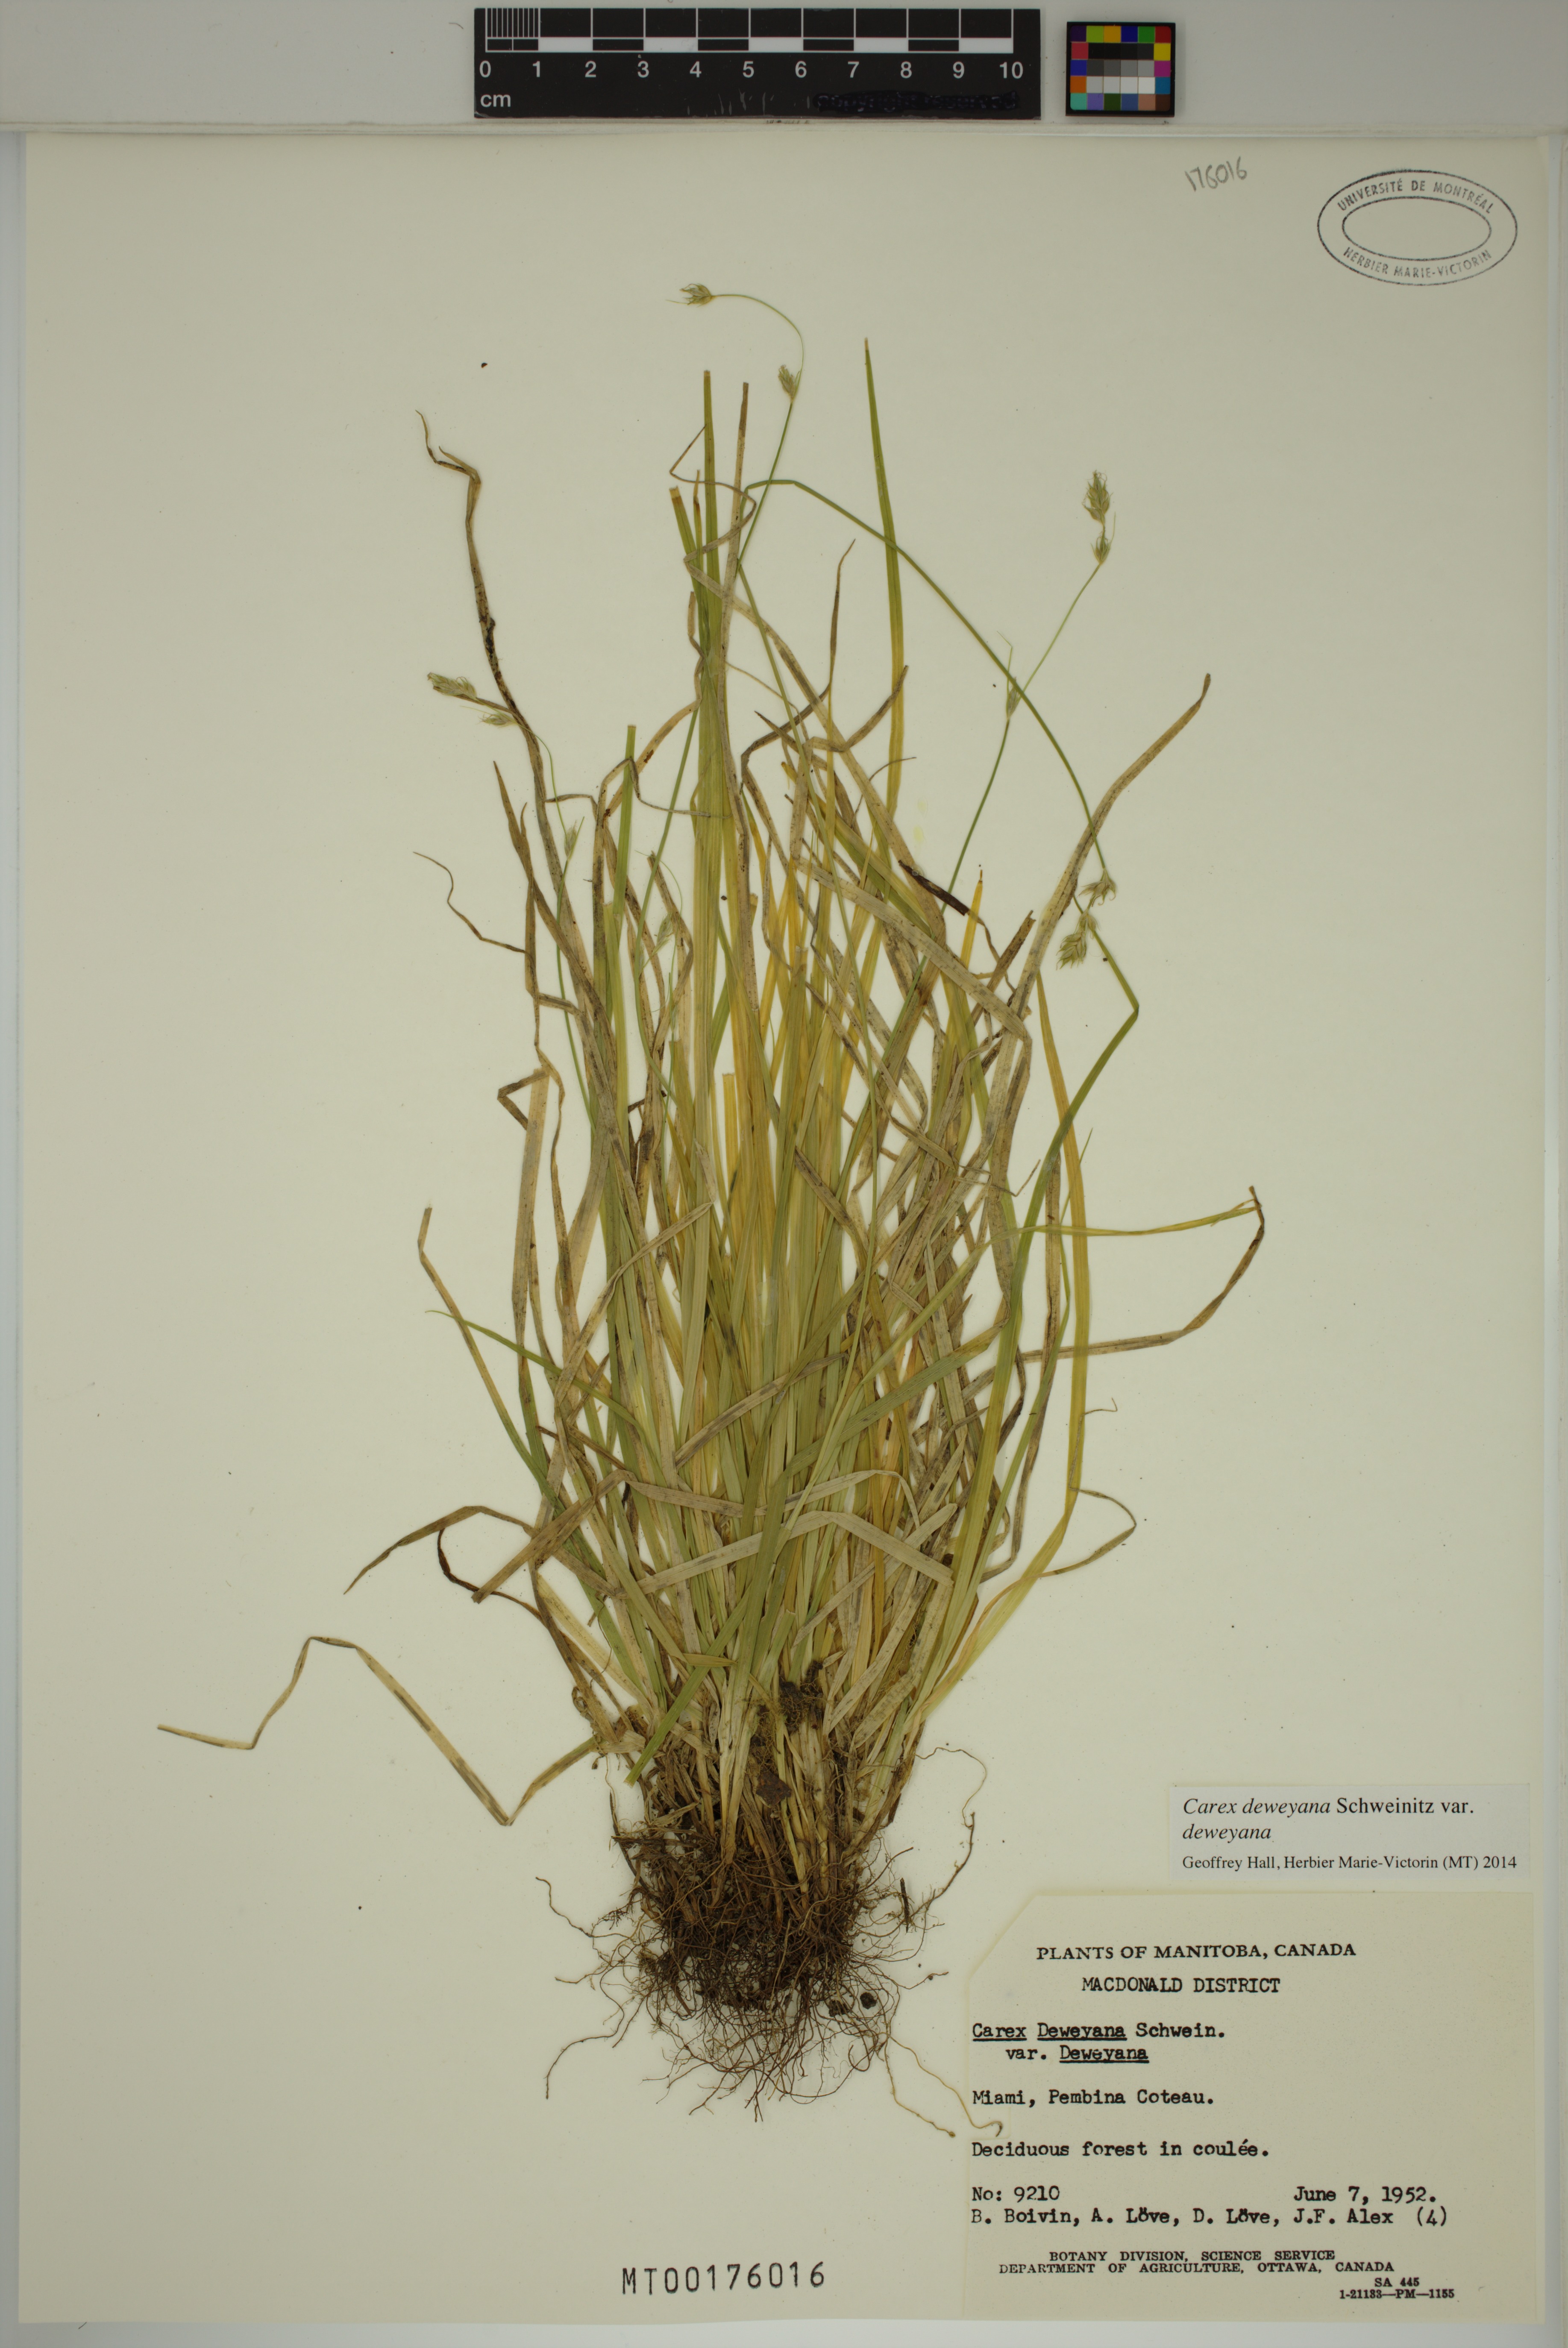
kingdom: Plantae
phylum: Tracheophyta
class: Liliopsida
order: Poales
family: Cyperaceae
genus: Carex
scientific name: Carex deweyana
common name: Dewey's sedge
